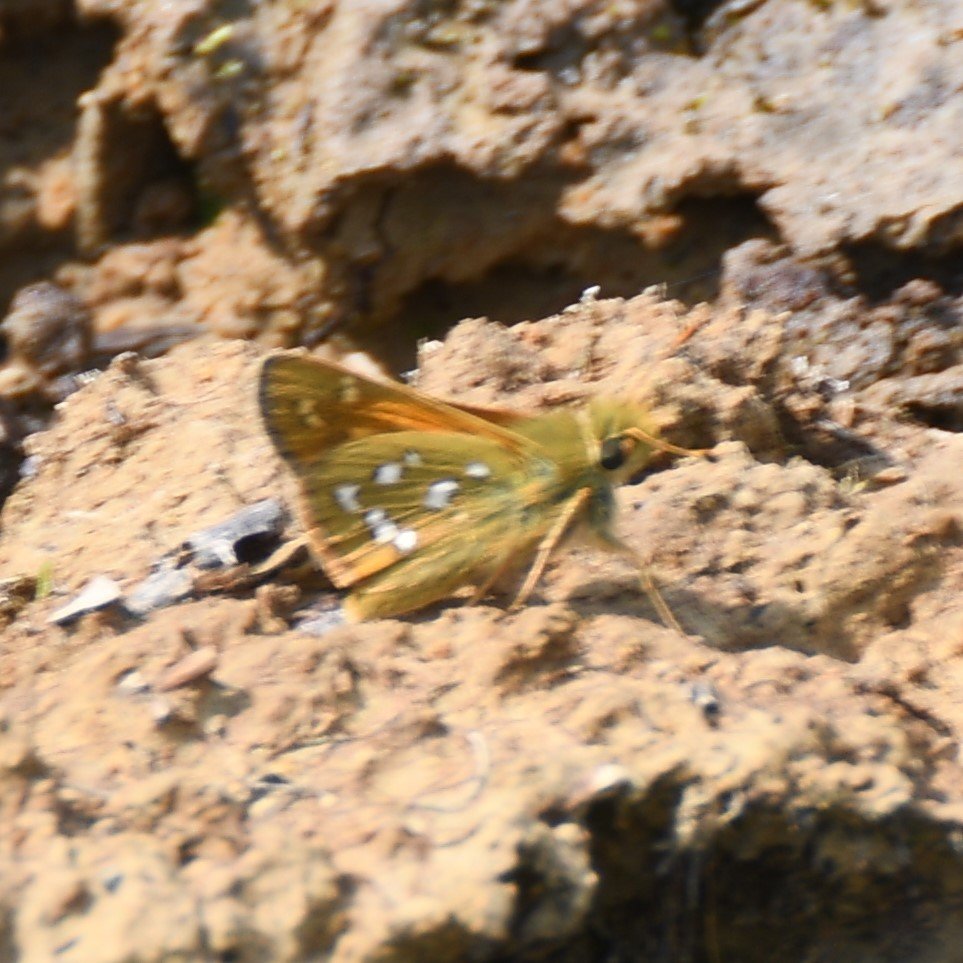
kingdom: Animalia
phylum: Arthropoda
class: Insecta
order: Lepidoptera
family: Hesperiidae
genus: Hesperia
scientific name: Hesperia comma
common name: Common Branded Skipper
